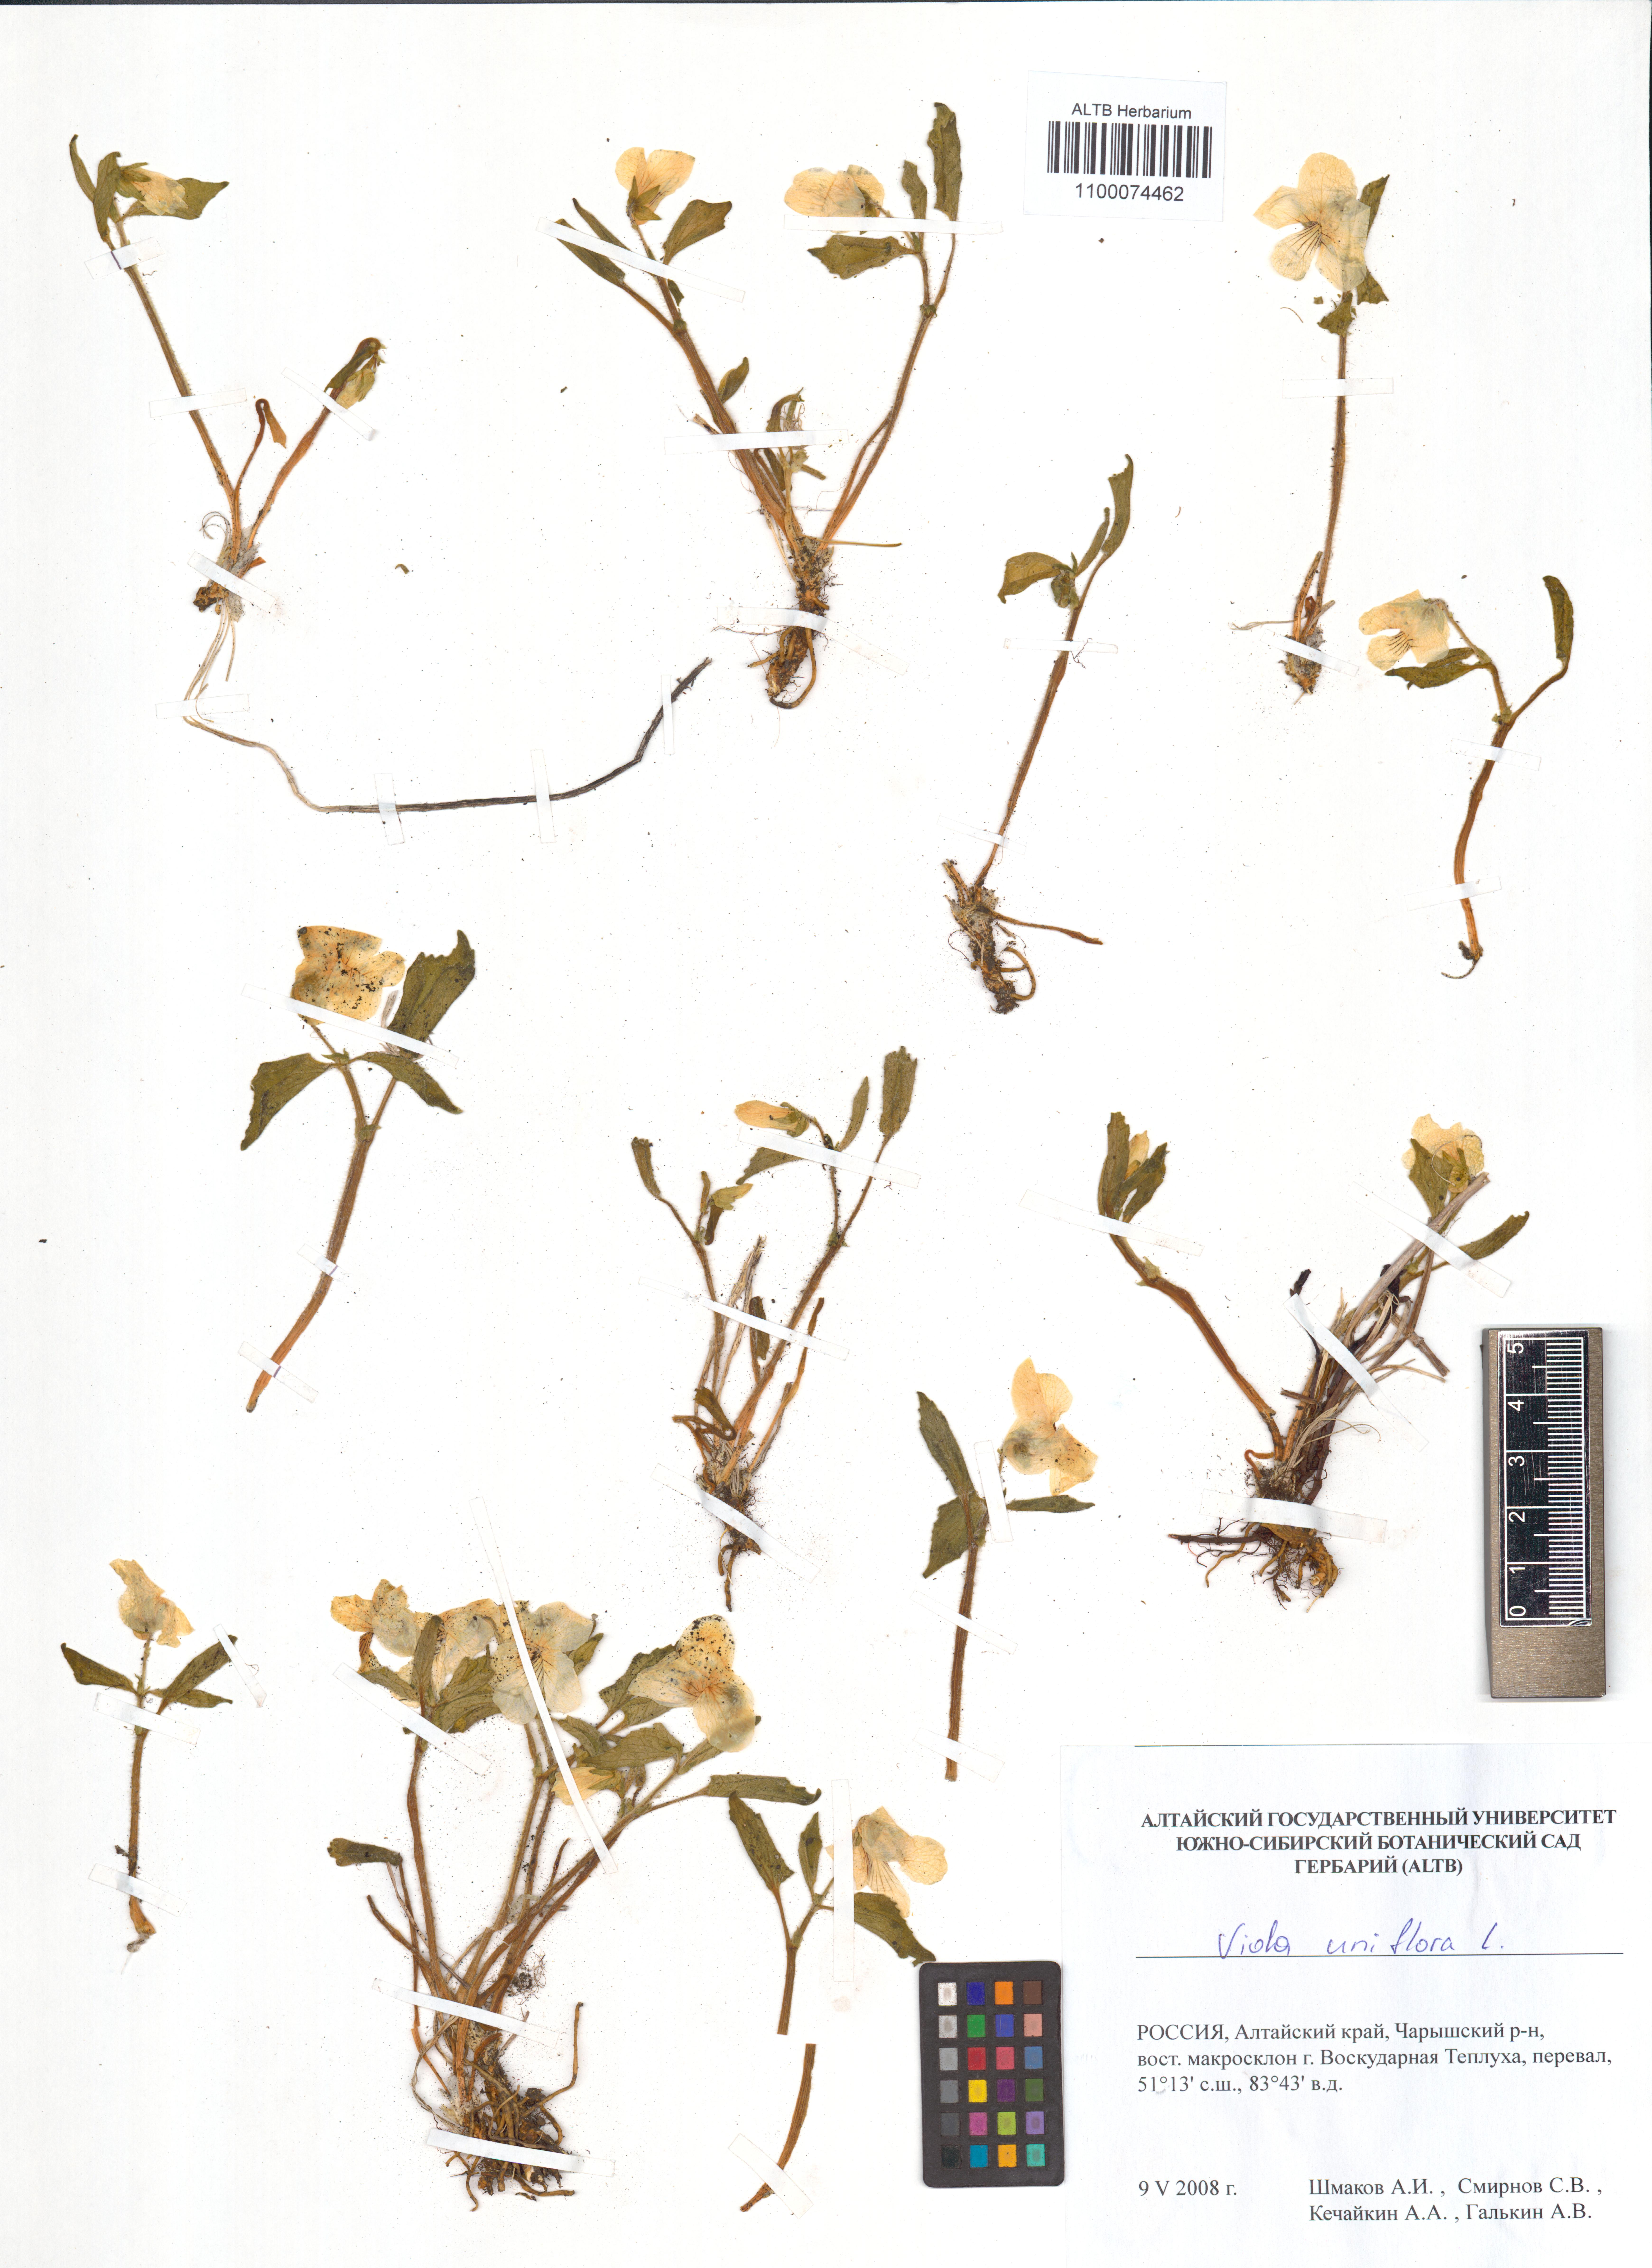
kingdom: Plantae
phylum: Tracheophyta
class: Magnoliopsida
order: Malpighiales
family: Violaceae
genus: Viola
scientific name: Viola uniflora
